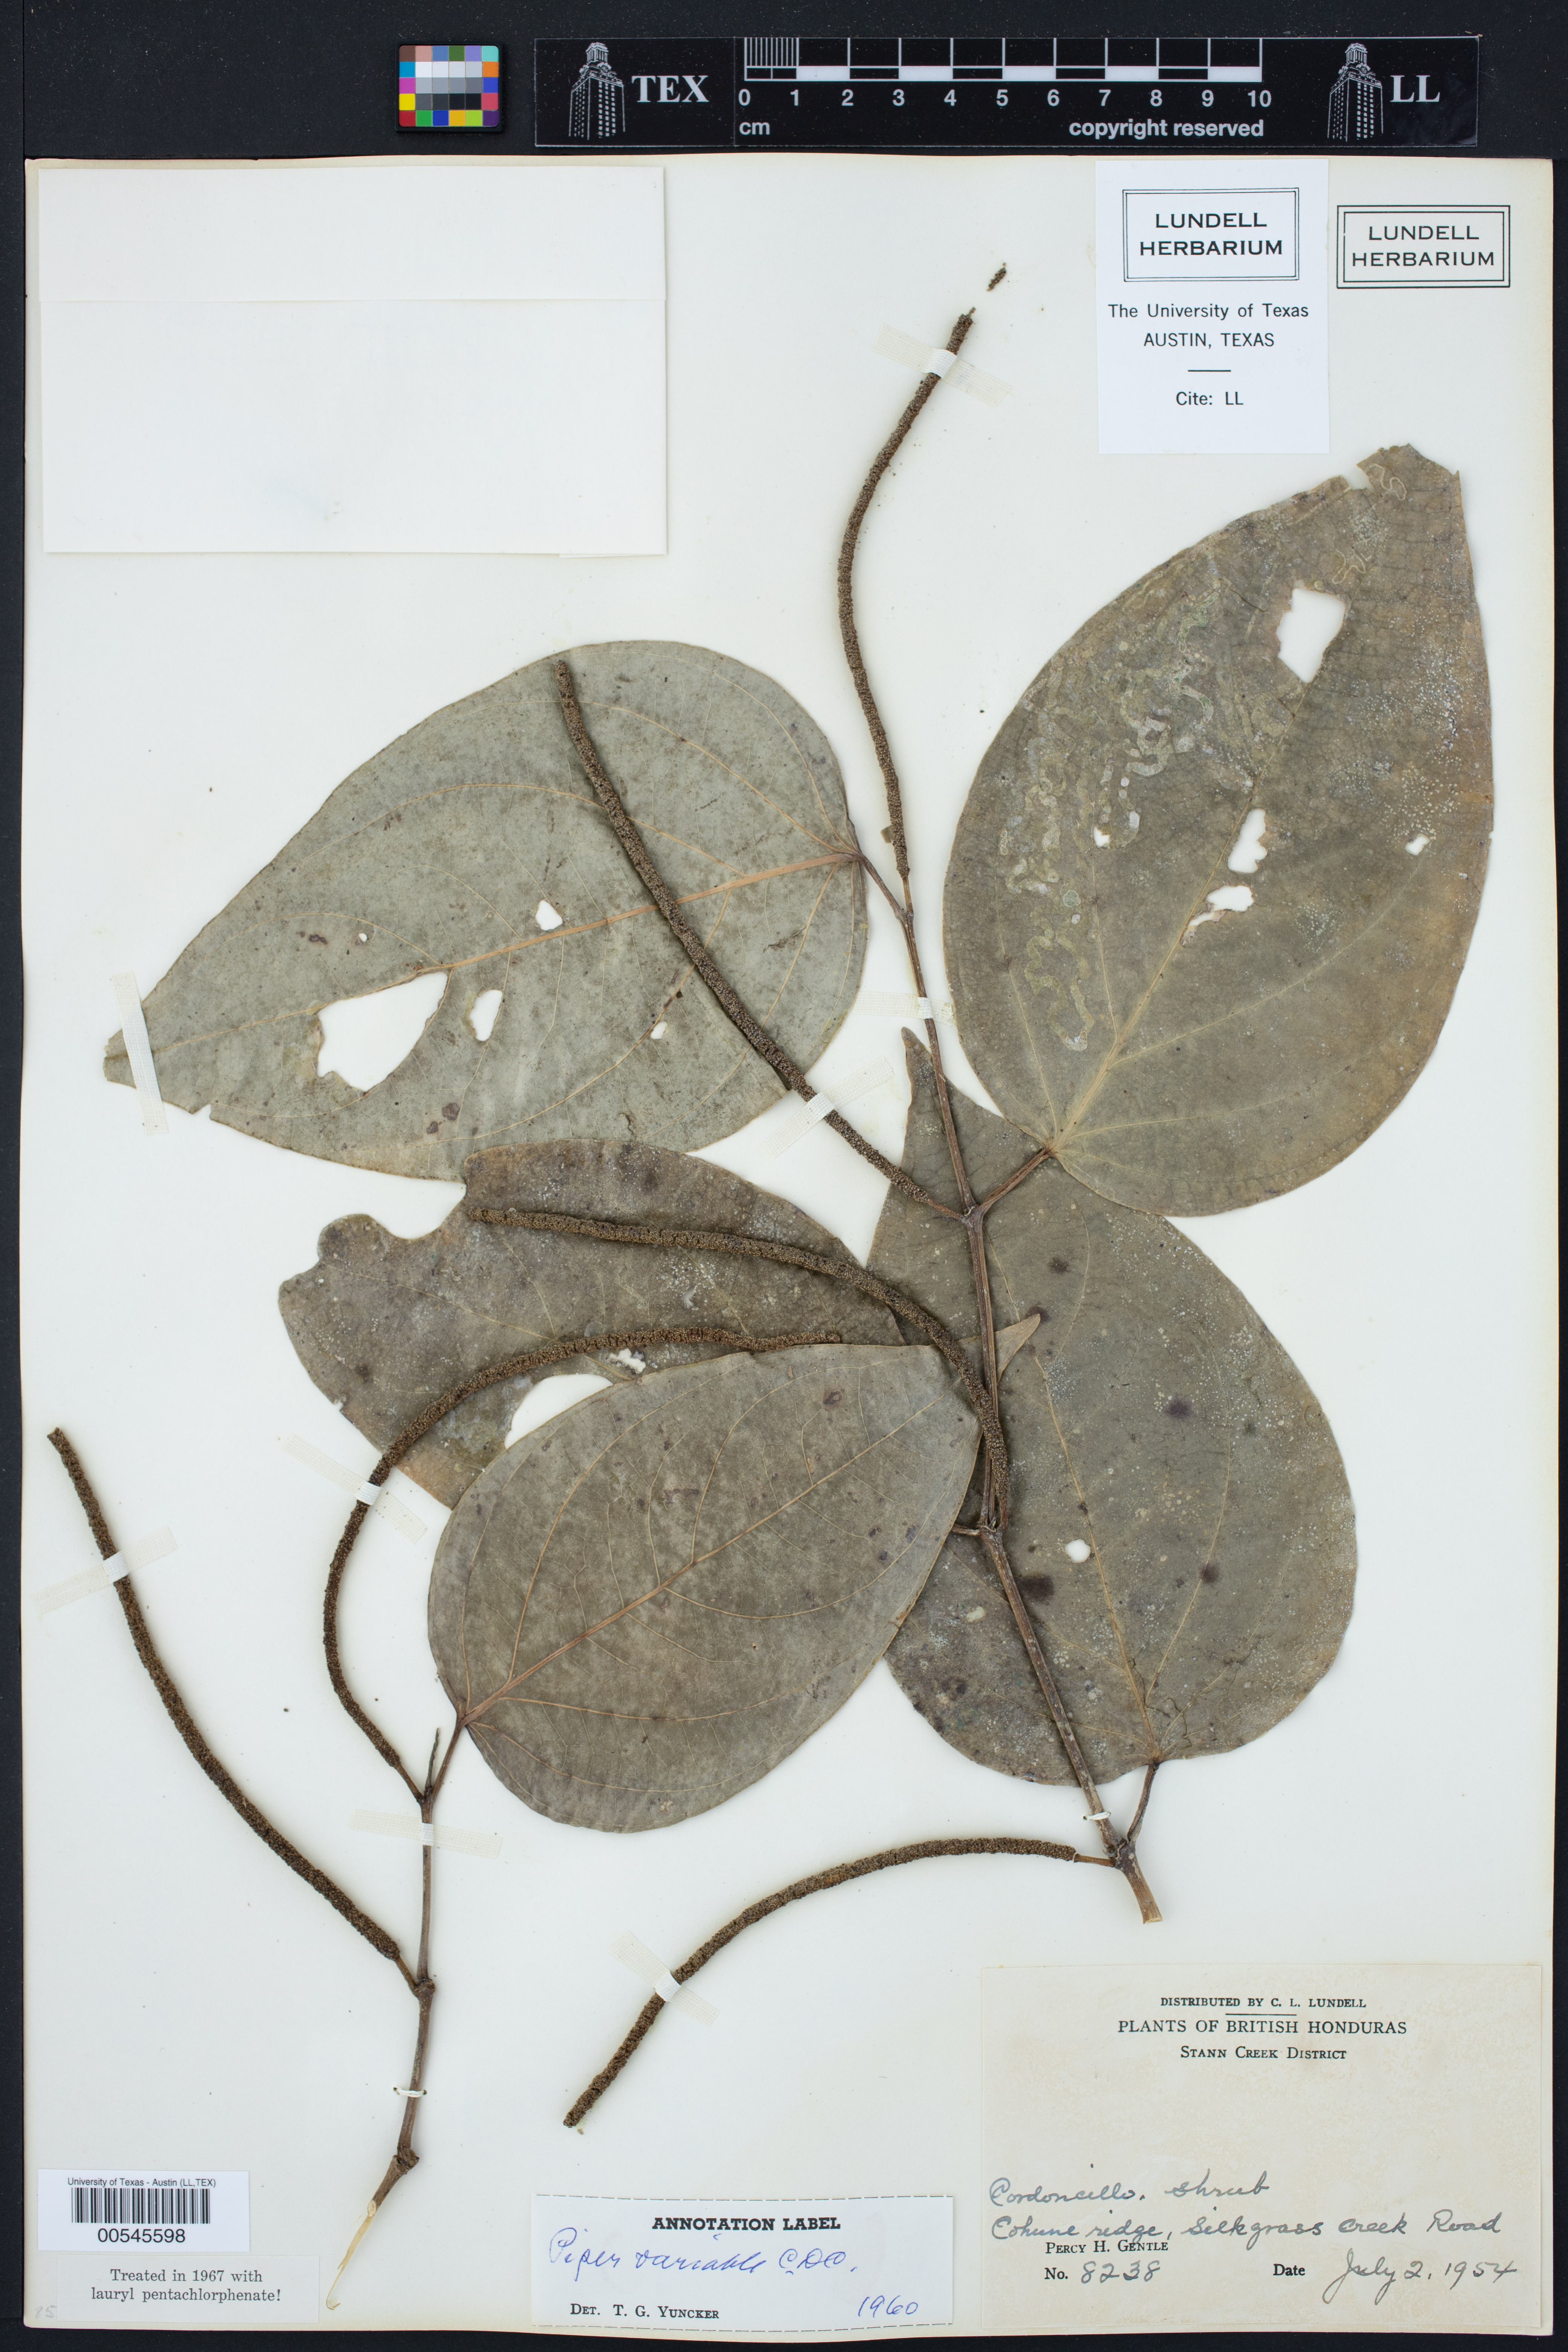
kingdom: Plantae
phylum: Tracheophyta
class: Magnoliopsida
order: Piperales
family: Piperaceae
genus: Piper
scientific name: Piper variabile
